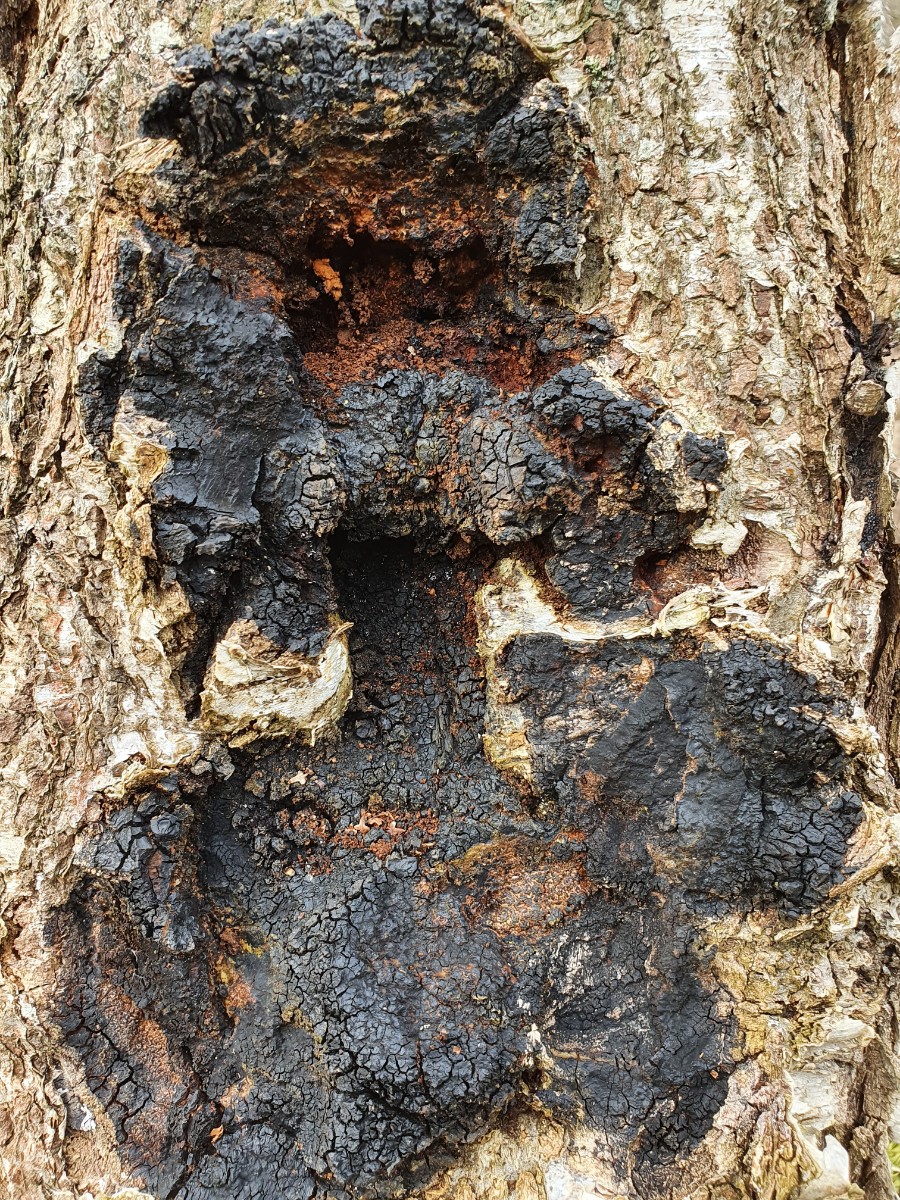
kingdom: Fungi
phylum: Basidiomycota
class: Agaricomycetes
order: Hymenochaetales
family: Hymenochaetaceae
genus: Inonotus
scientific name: Inonotus obliquus
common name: birke-spejlporesvamp
